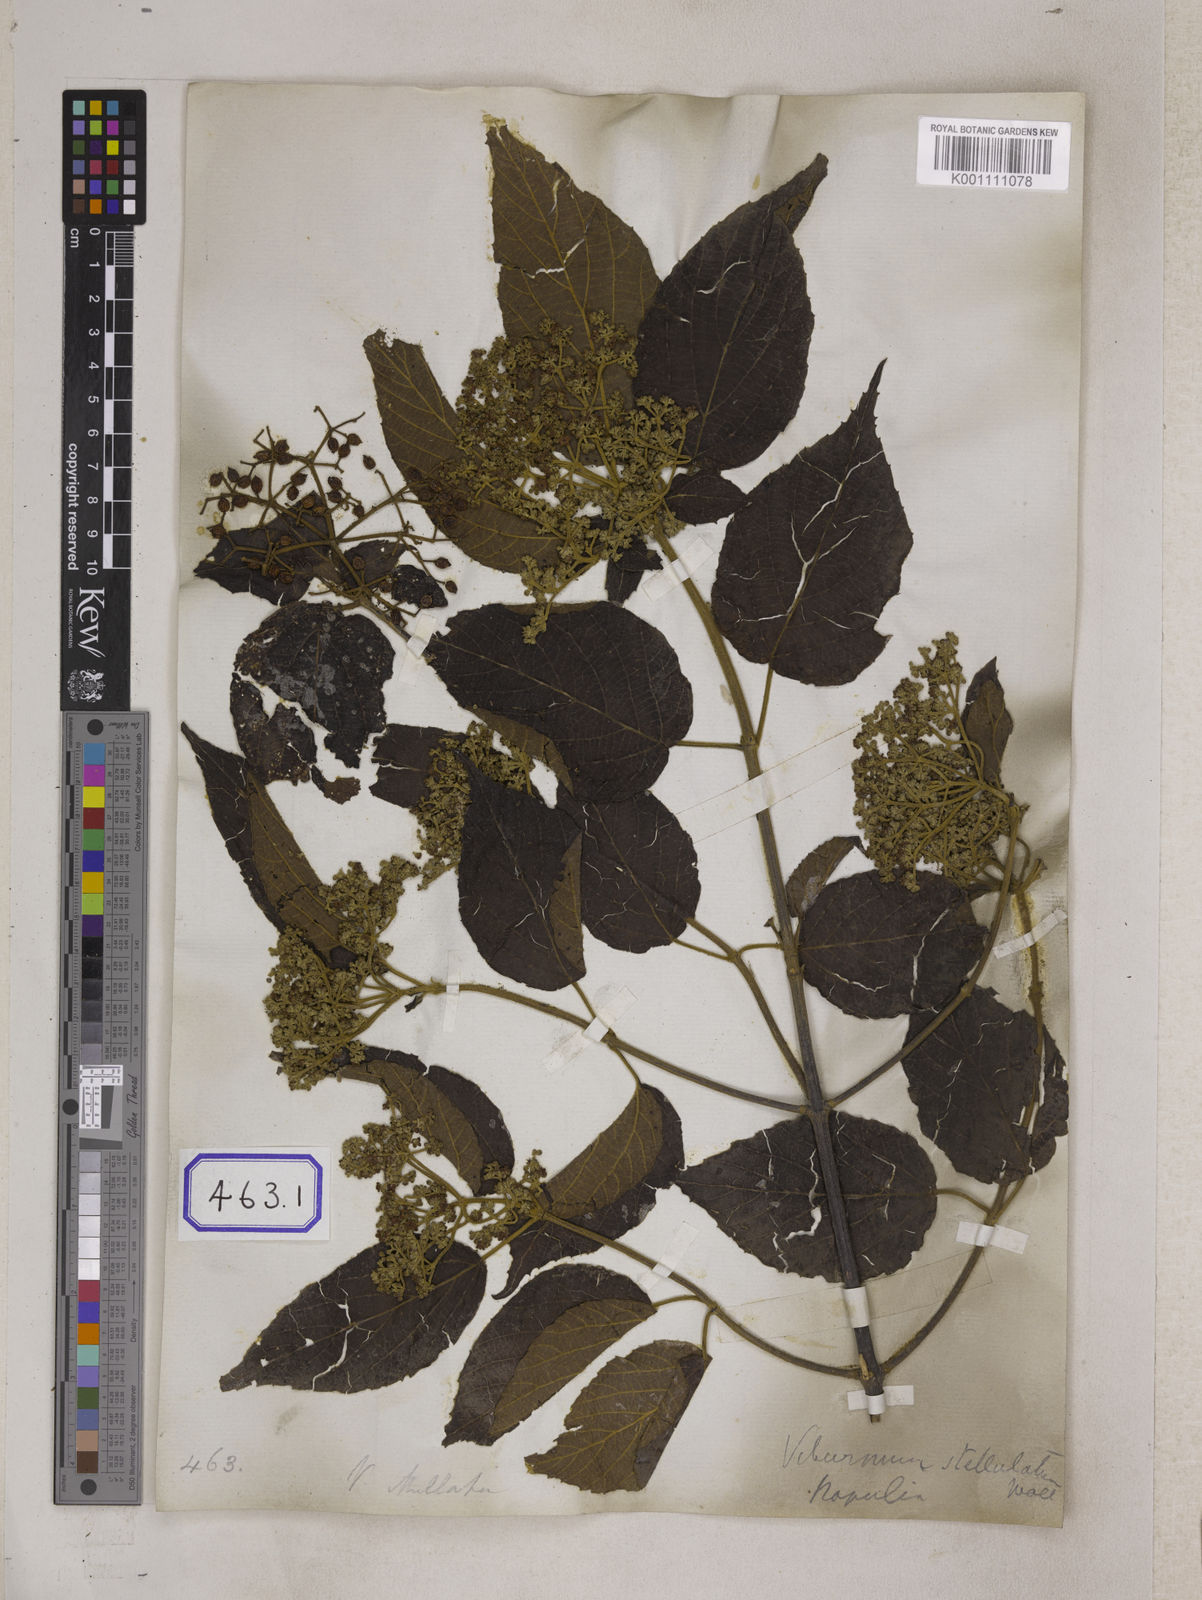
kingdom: Plantae
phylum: Tracheophyta
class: Magnoliopsida
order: Dipsacales
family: Viburnaceae
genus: Viburnum
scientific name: Viburnum
